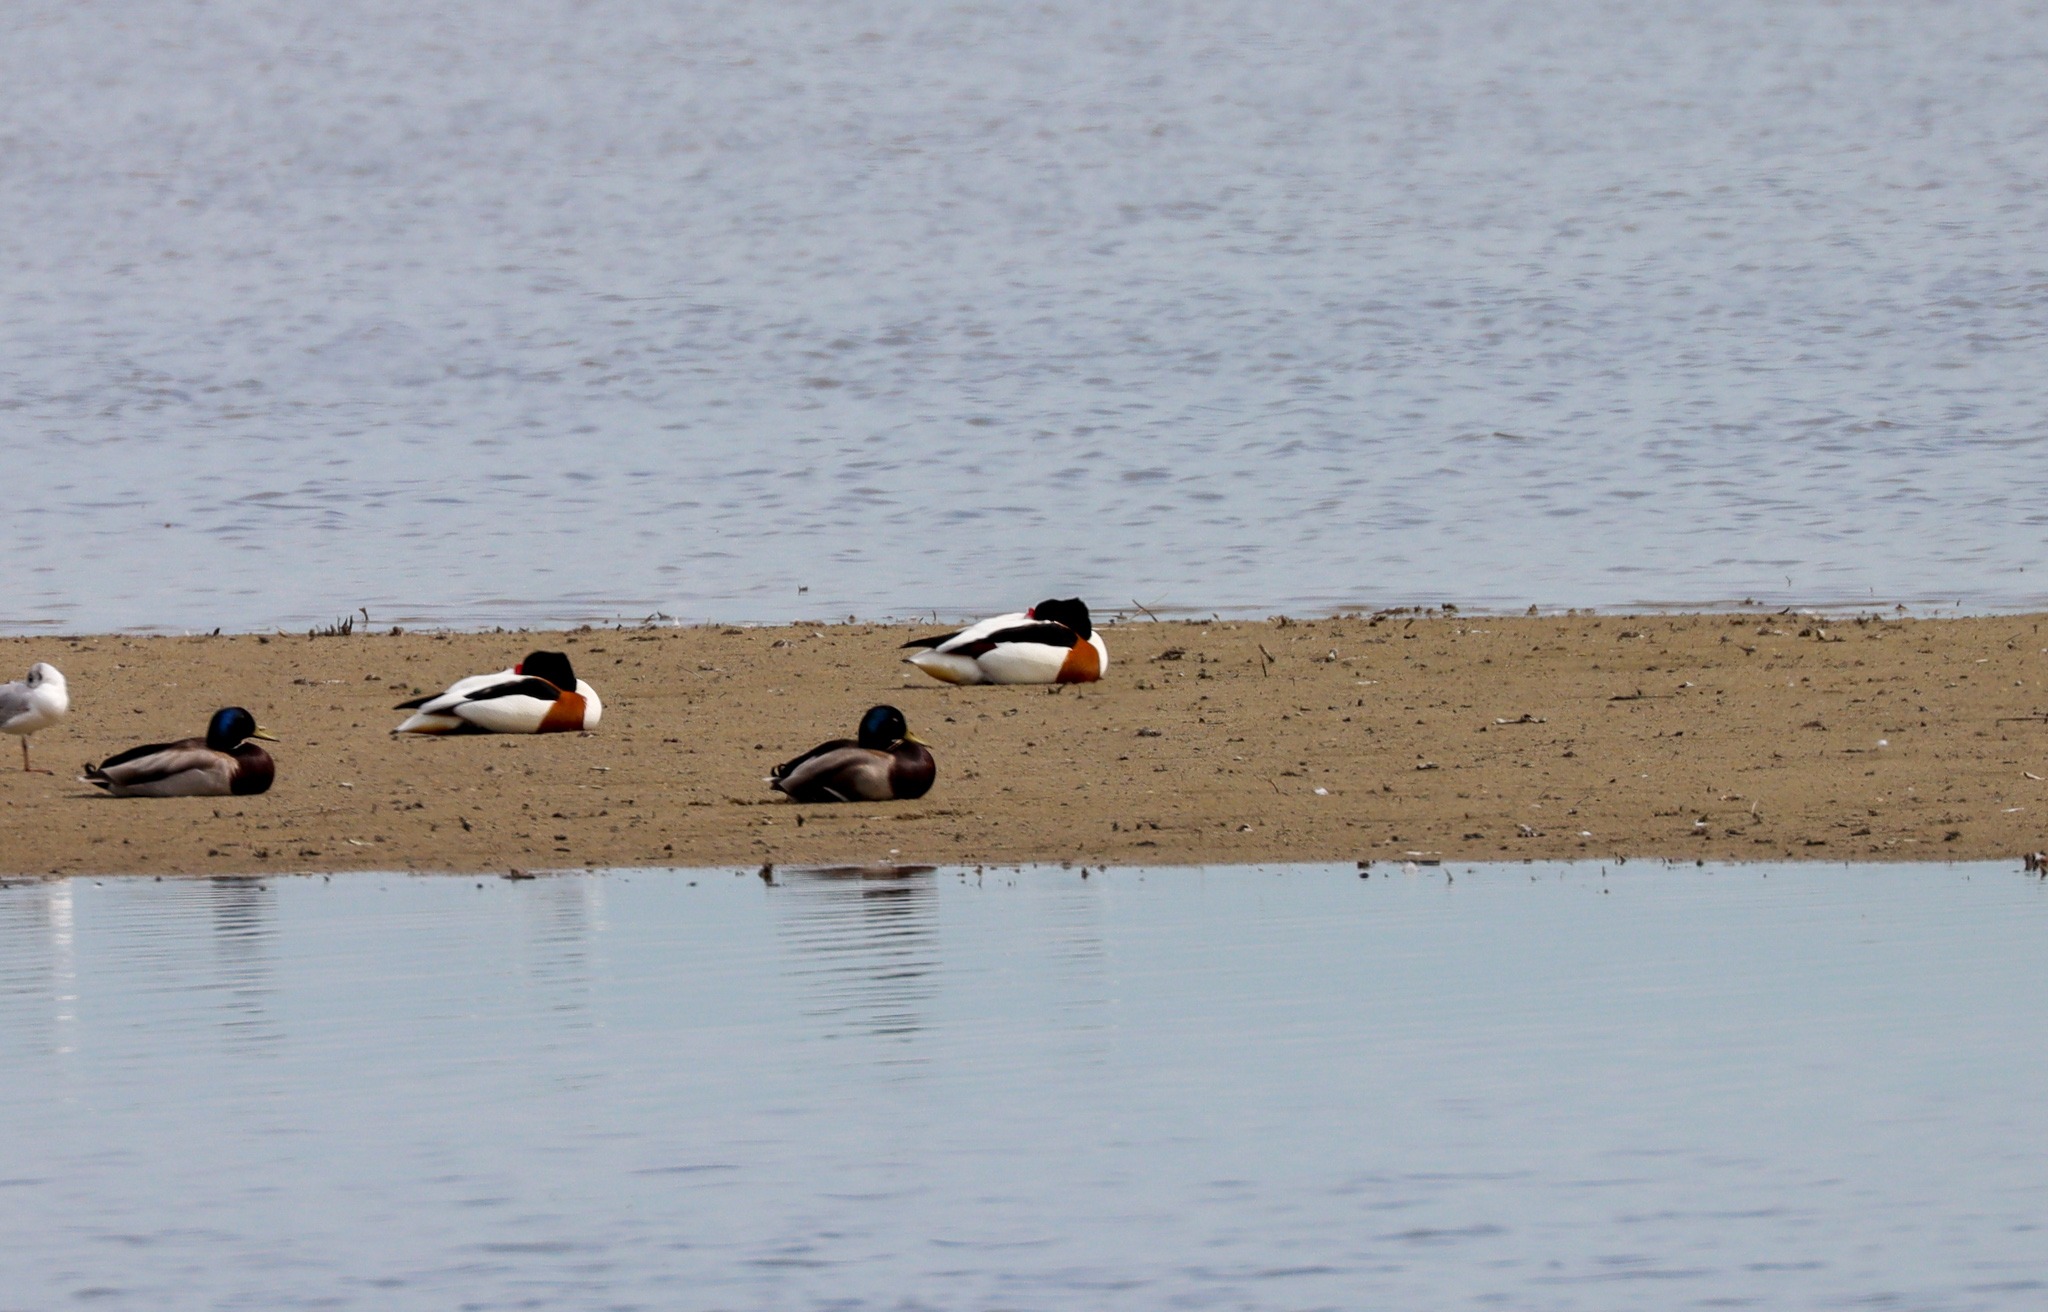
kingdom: Animalia
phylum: Chordata
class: Aves
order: Anseriformes
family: Anatidae
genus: Tadorna
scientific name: Tadorna tadorna
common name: Gravand
